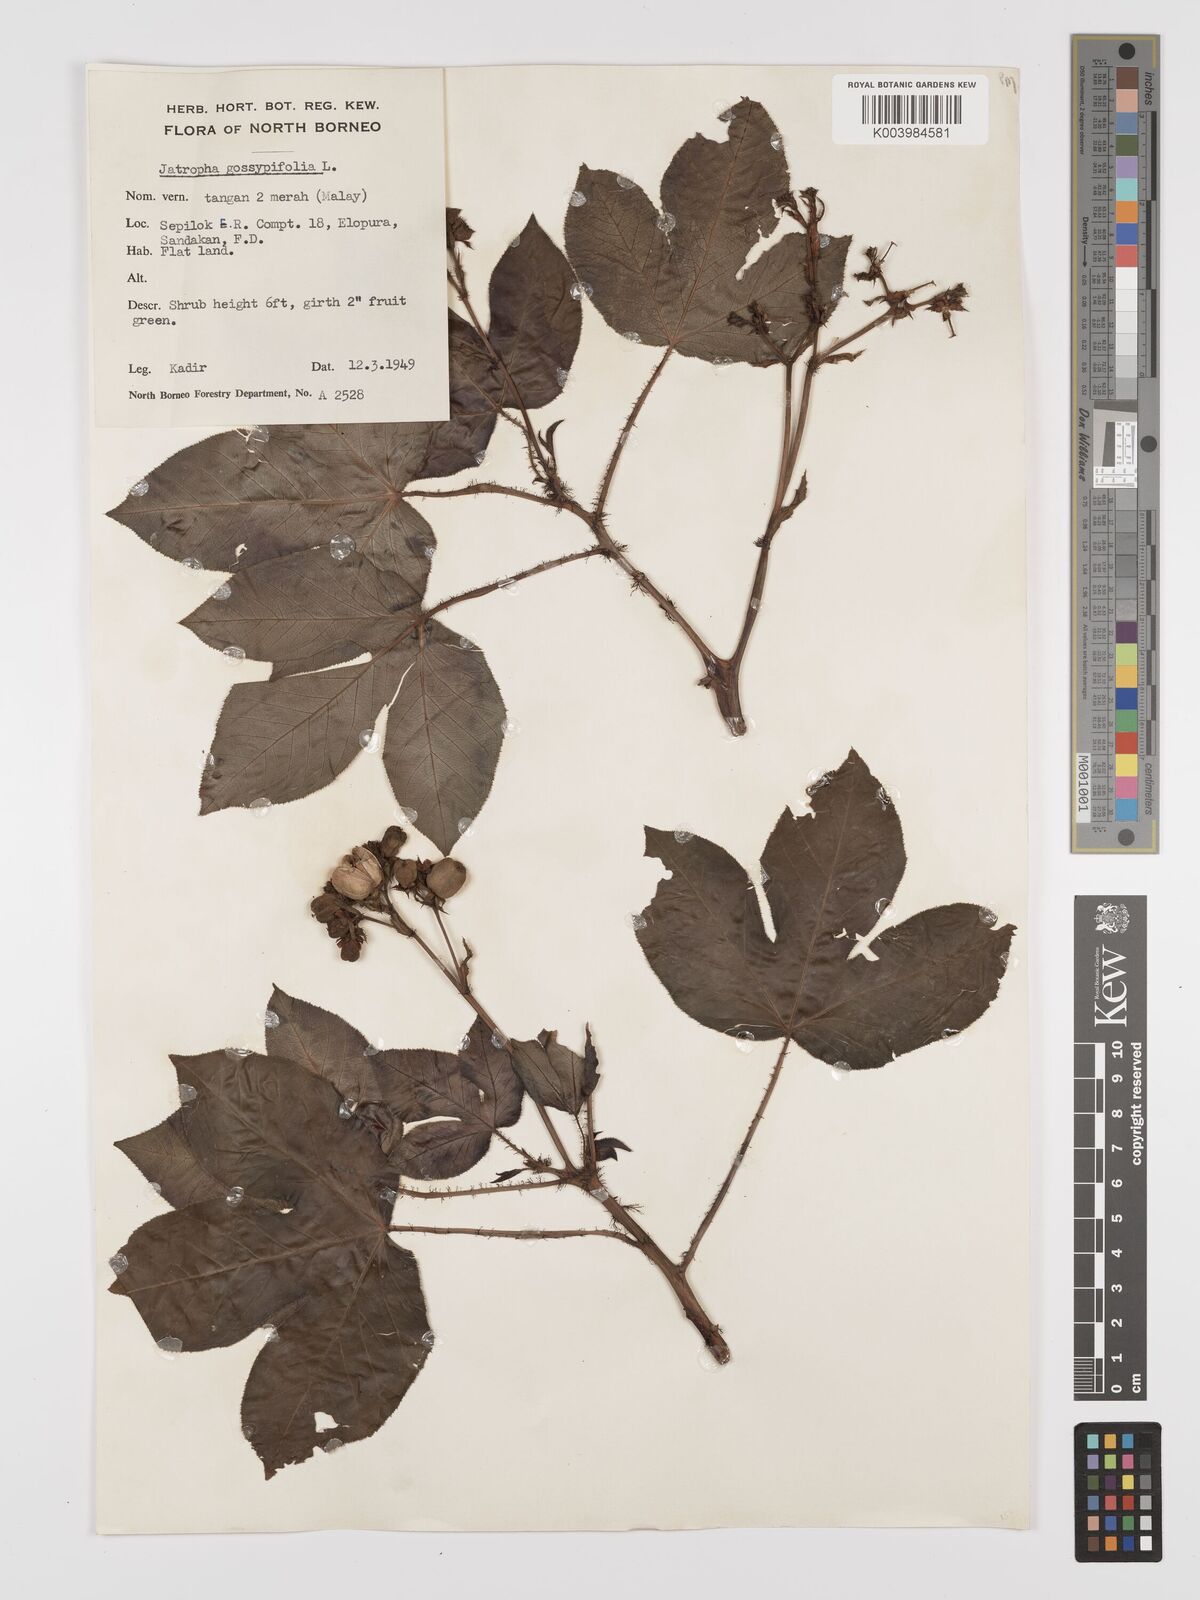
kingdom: Plantae
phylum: Tracheophyta
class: Magnoliopsida
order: Malpighiales
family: Euphorbiaceae
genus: Jatropha
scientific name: Jatropha gossypiifolia
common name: Bellyache bush
